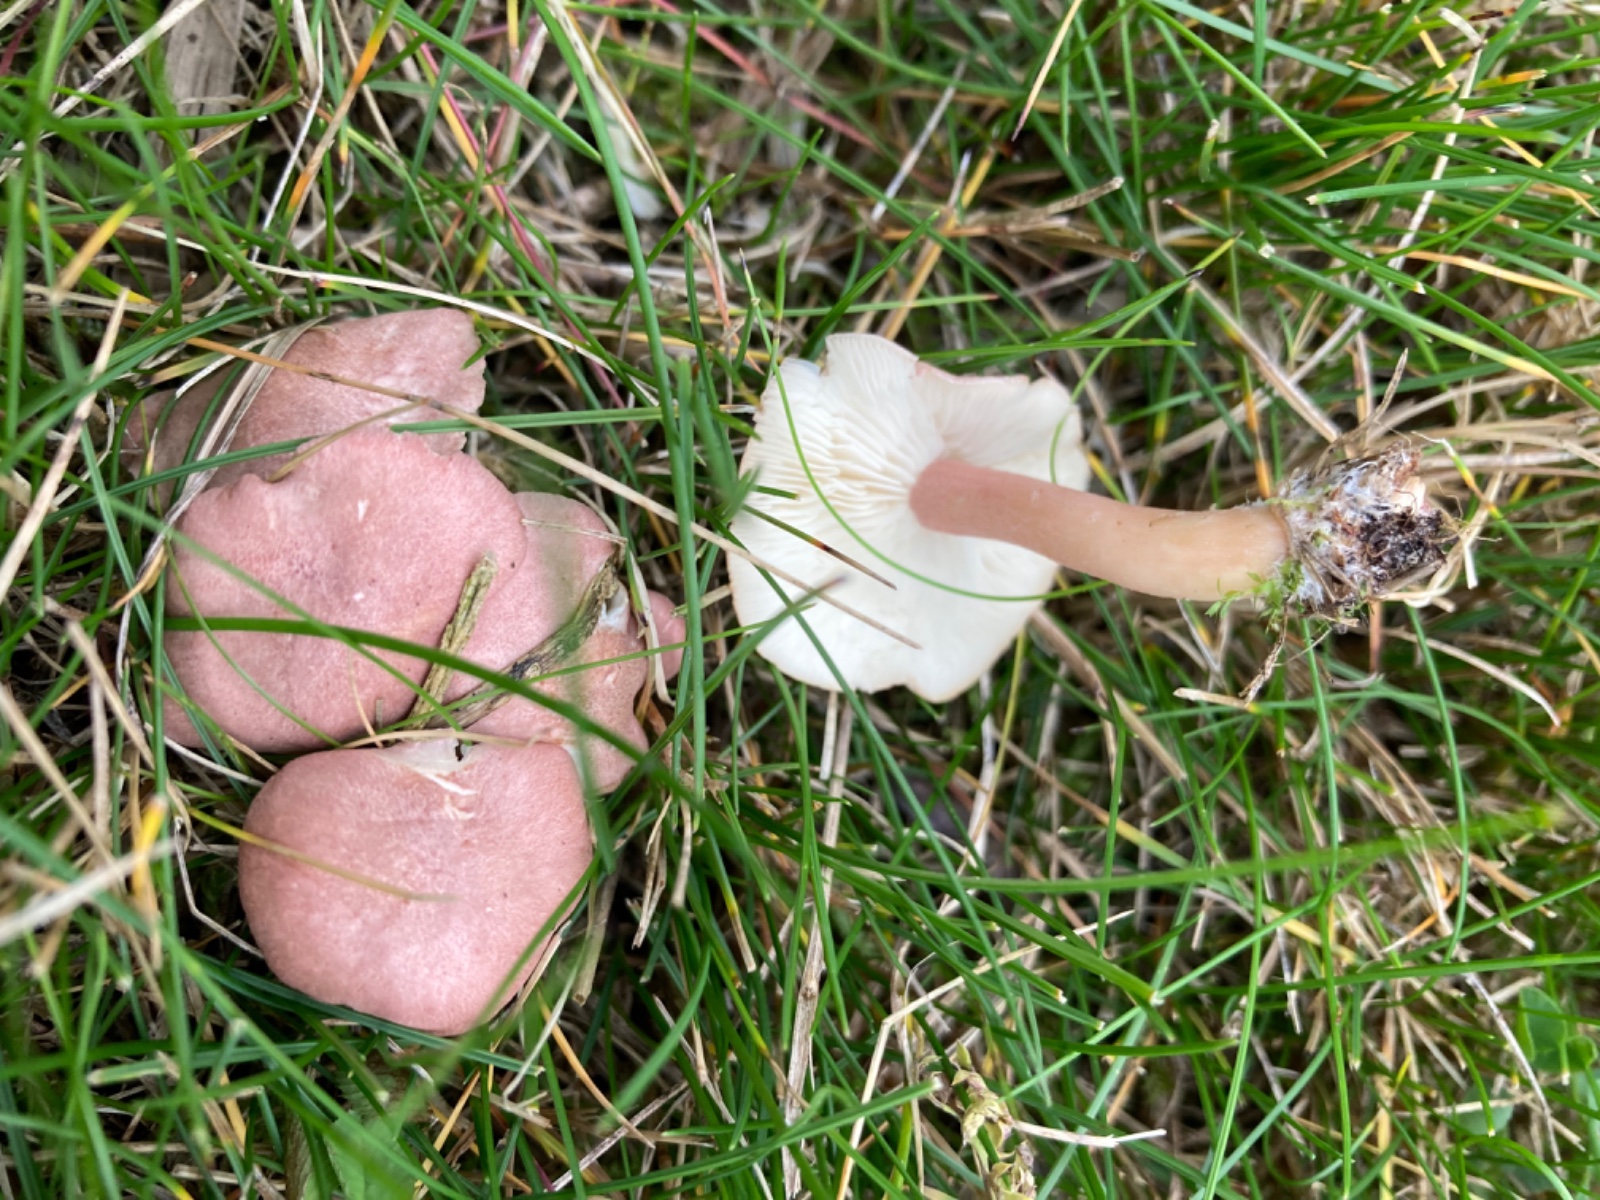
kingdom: Fungi
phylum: Basidiomycota
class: Agaricomycetes
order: Agaricales
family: Lyophyllaceae
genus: Calocybe
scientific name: Calocybe carnea
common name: rosa fagerhat
